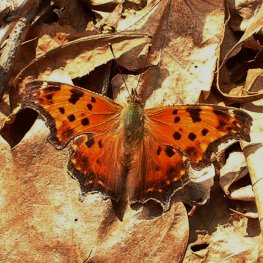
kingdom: Animalia
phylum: Arthropoda
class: Insecta
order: Lepidoptera
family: Nymphalidae
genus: Polygonia
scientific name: Polygonia comma
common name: Eastern Comma
